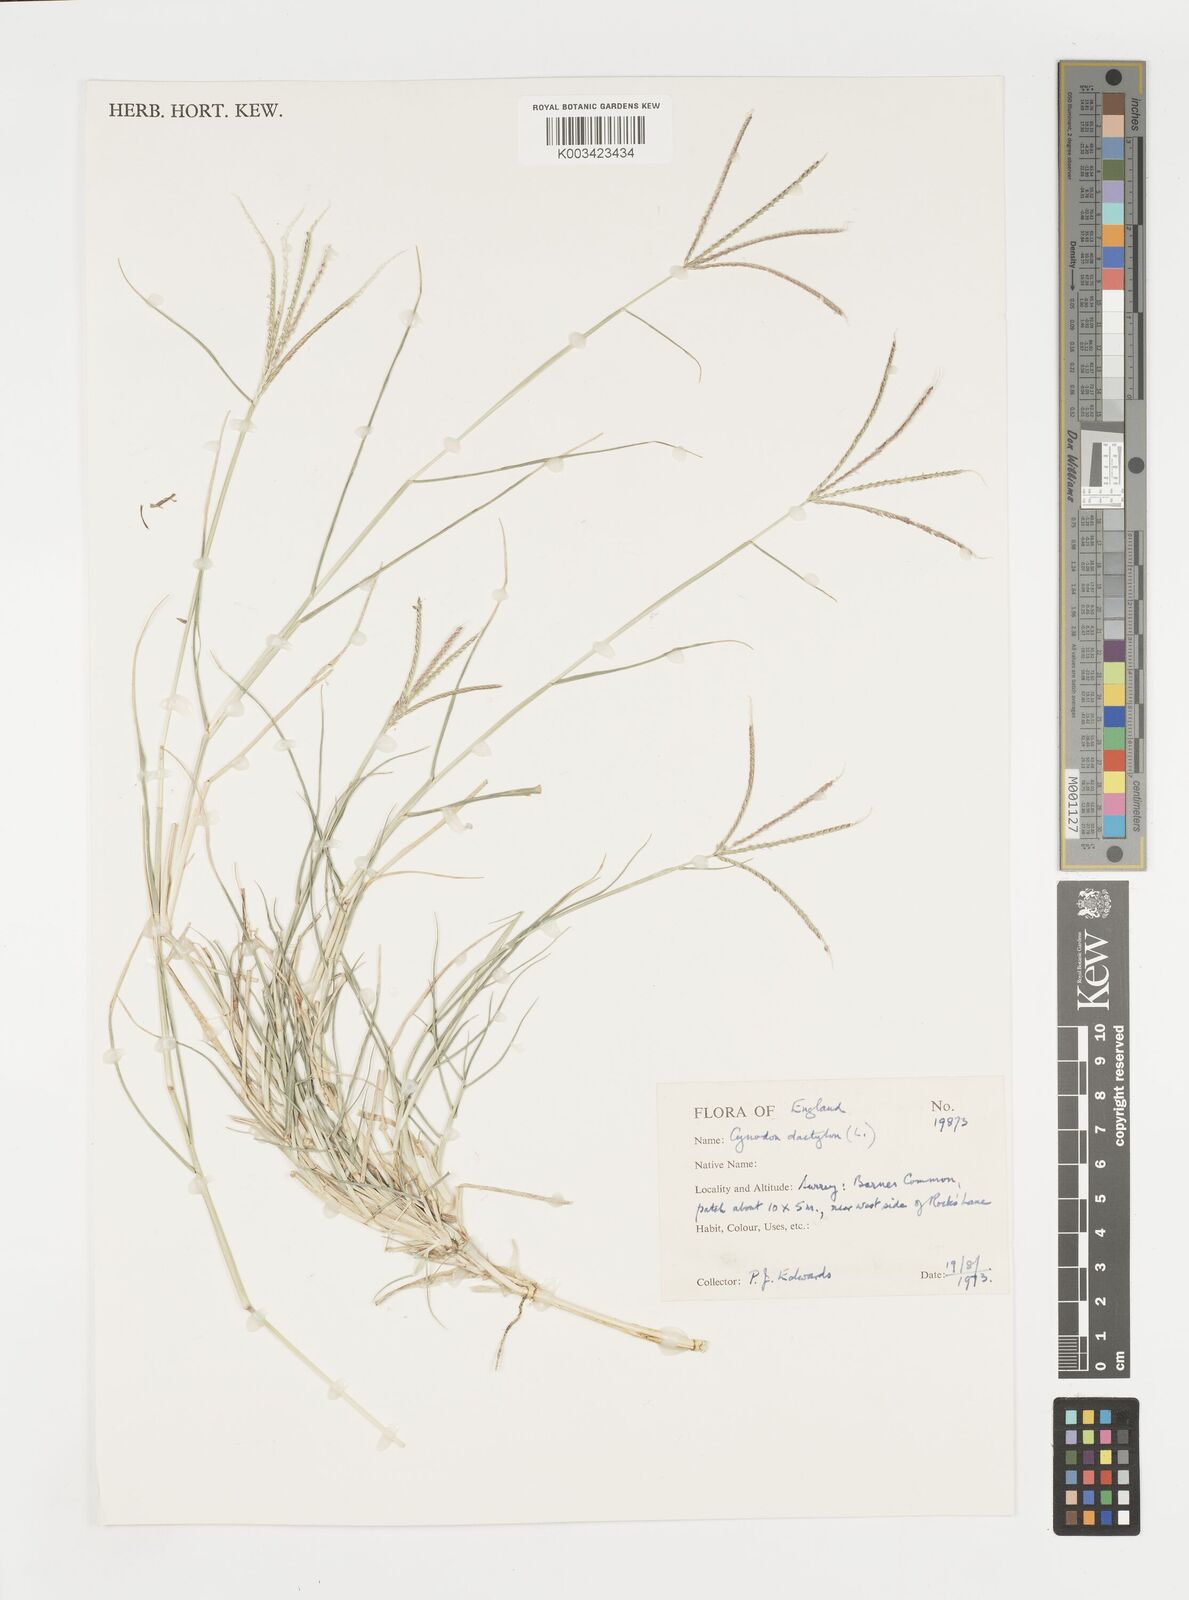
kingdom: Plantae
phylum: Tracheophyta
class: Liliopsida
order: Poales
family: Poaceae
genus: Cynodon
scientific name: Cynodon dactylon
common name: Bermuda grass
